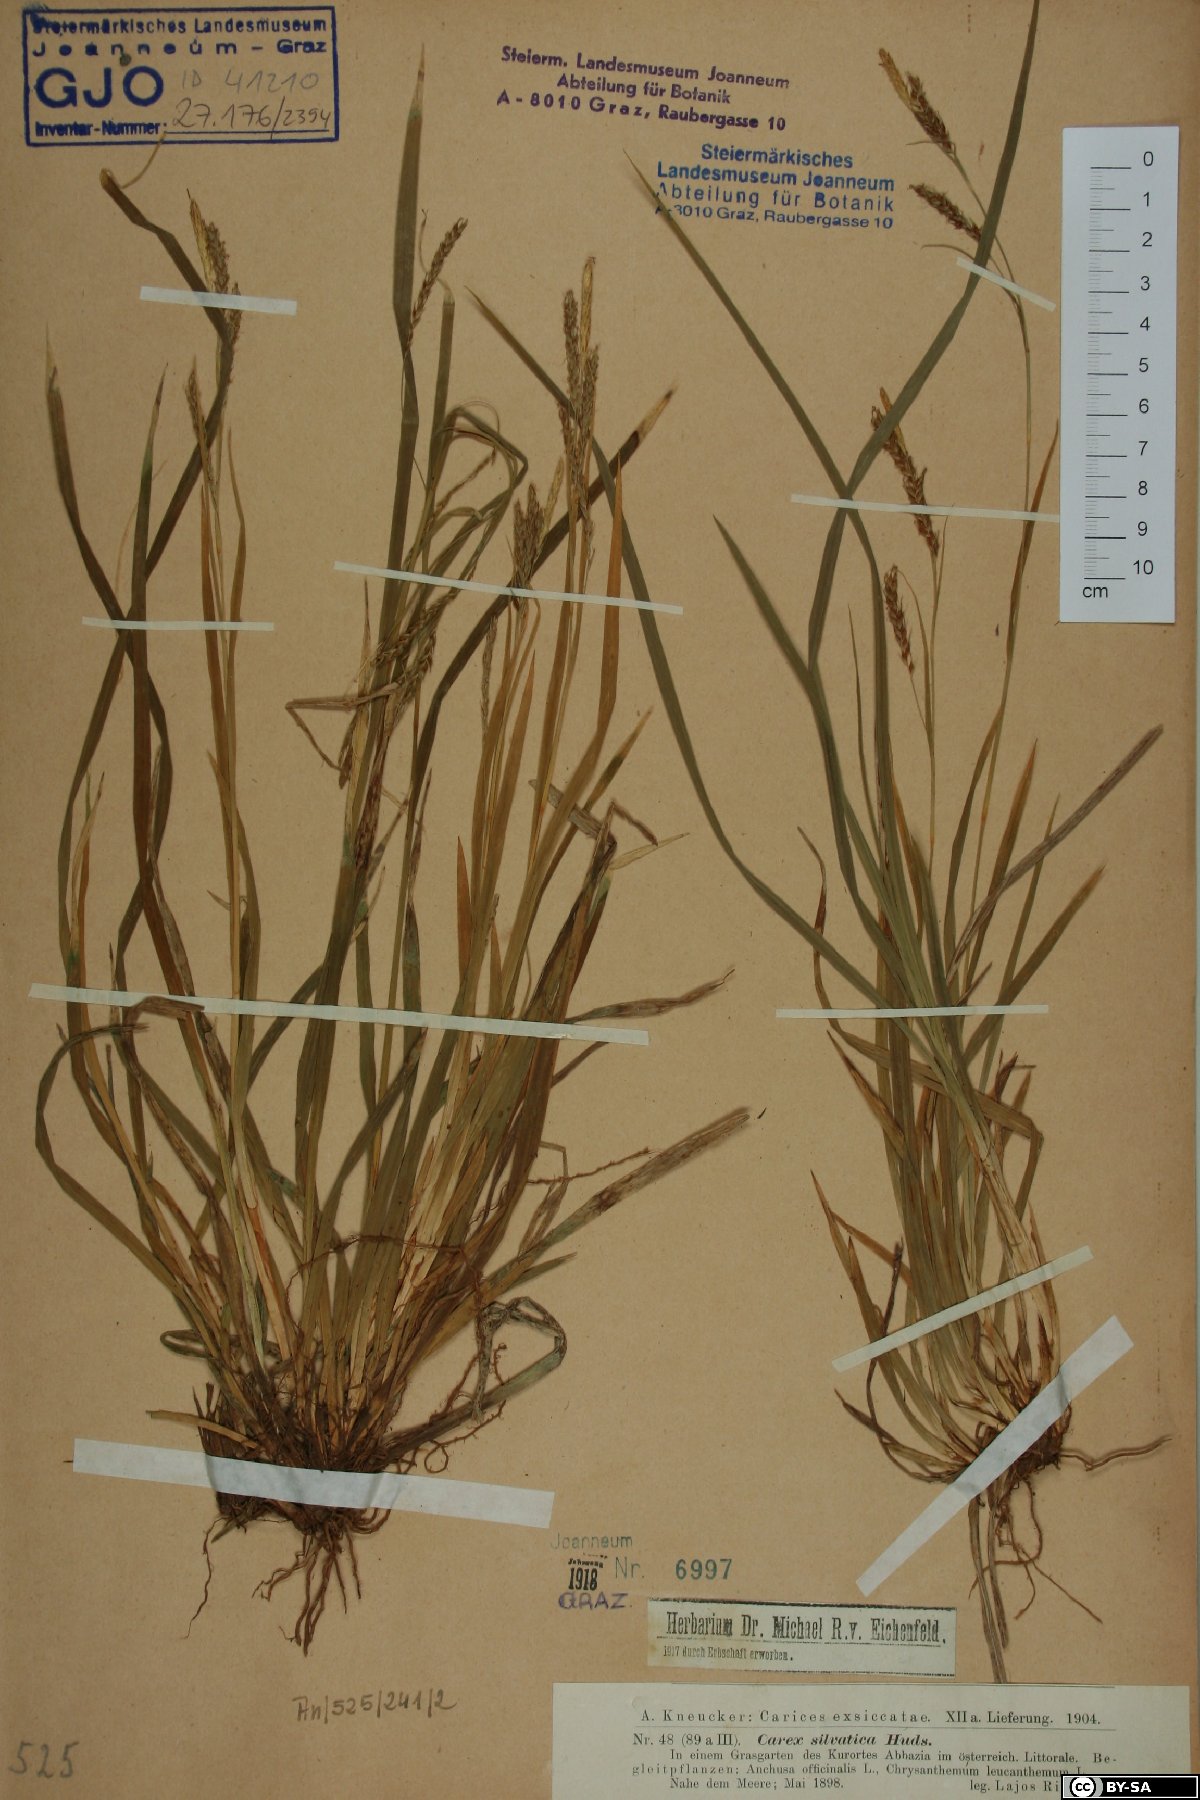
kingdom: Plantae
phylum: Tracheophyta
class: Liliopsida
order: Poales
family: Cyperaceae
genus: Carex
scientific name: Carex sylvatica
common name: Wood-sedge
